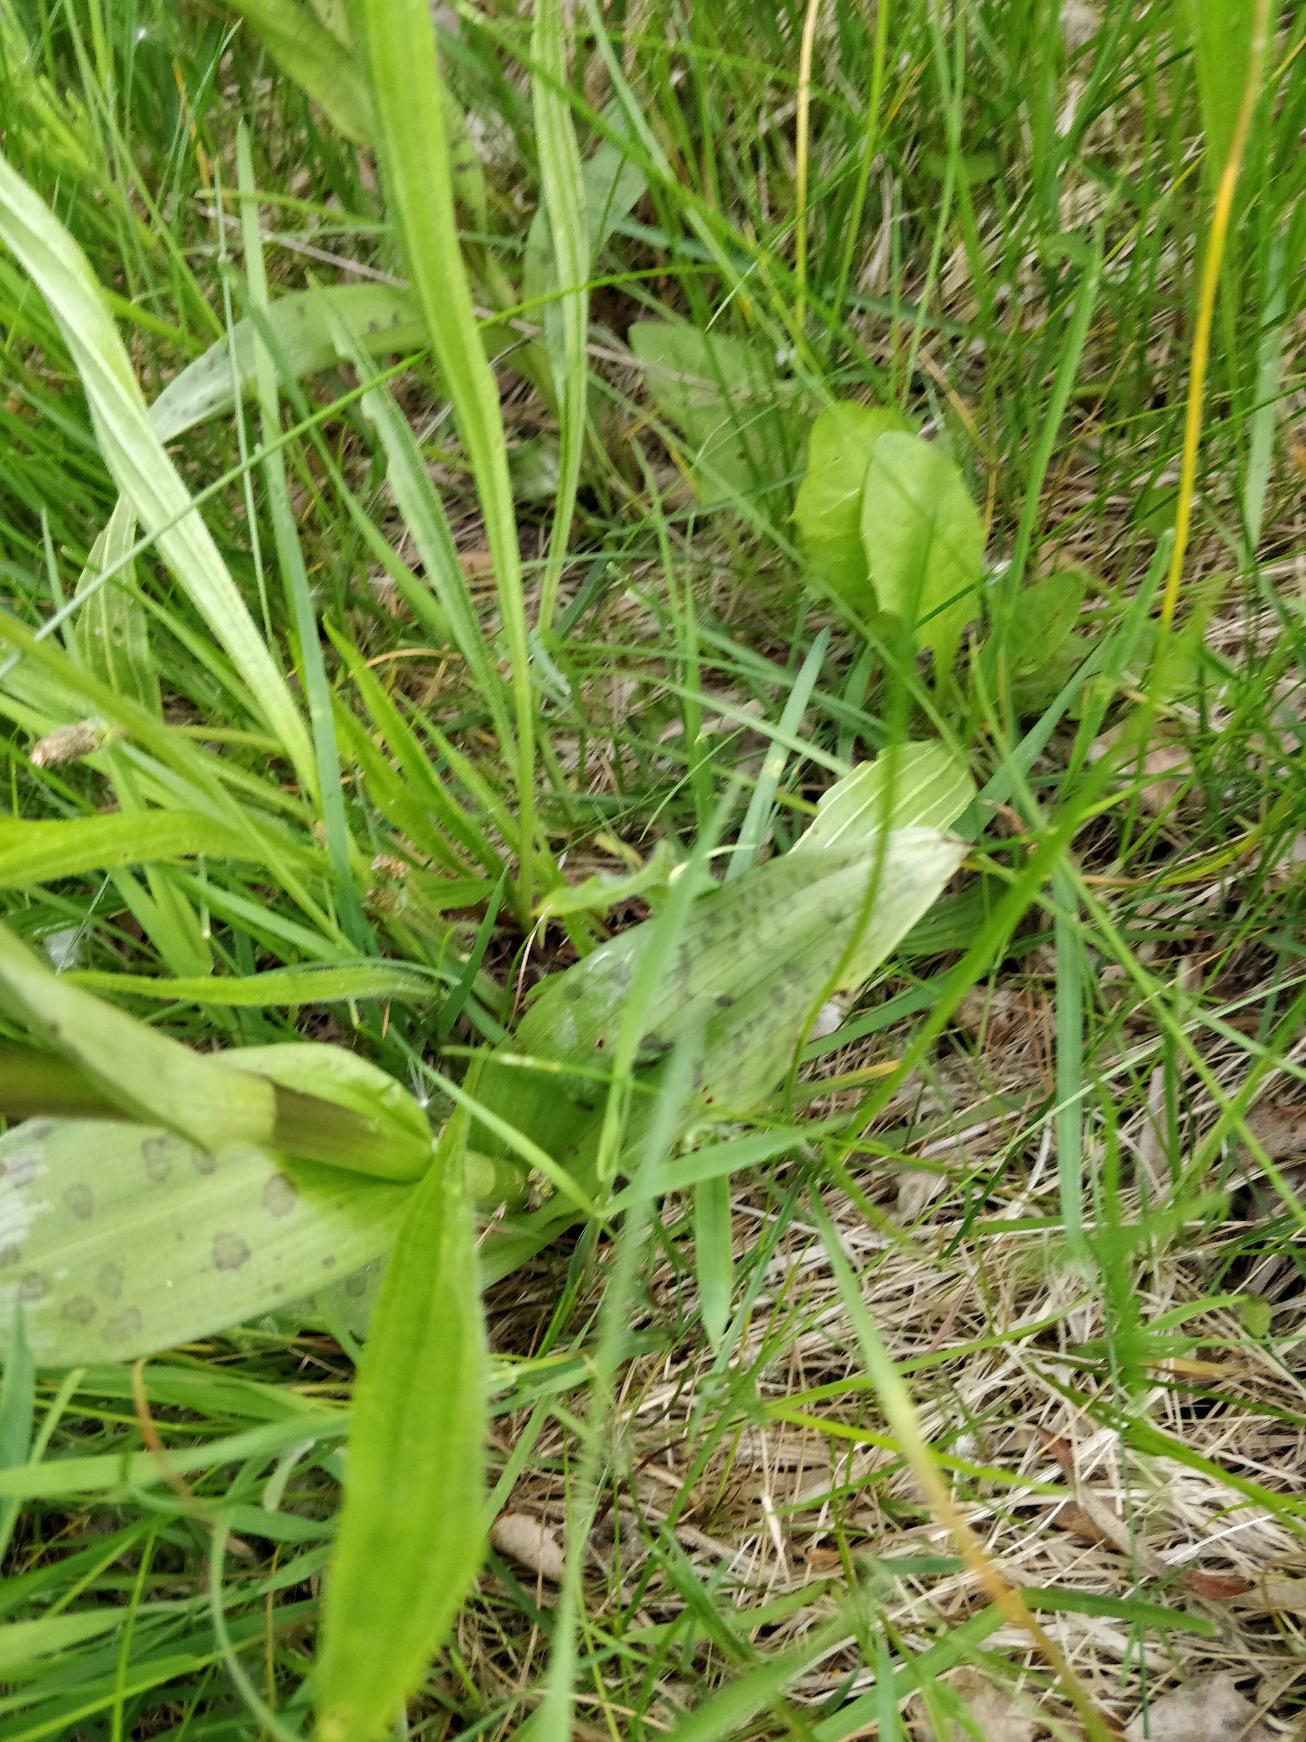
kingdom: Plantae
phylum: Tracheophyta
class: Liliopsida
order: Asparagales
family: Orchidaceae
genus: Dactylorhiza
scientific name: Dactylorhiza majalis
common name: Maj-gøgeurt
